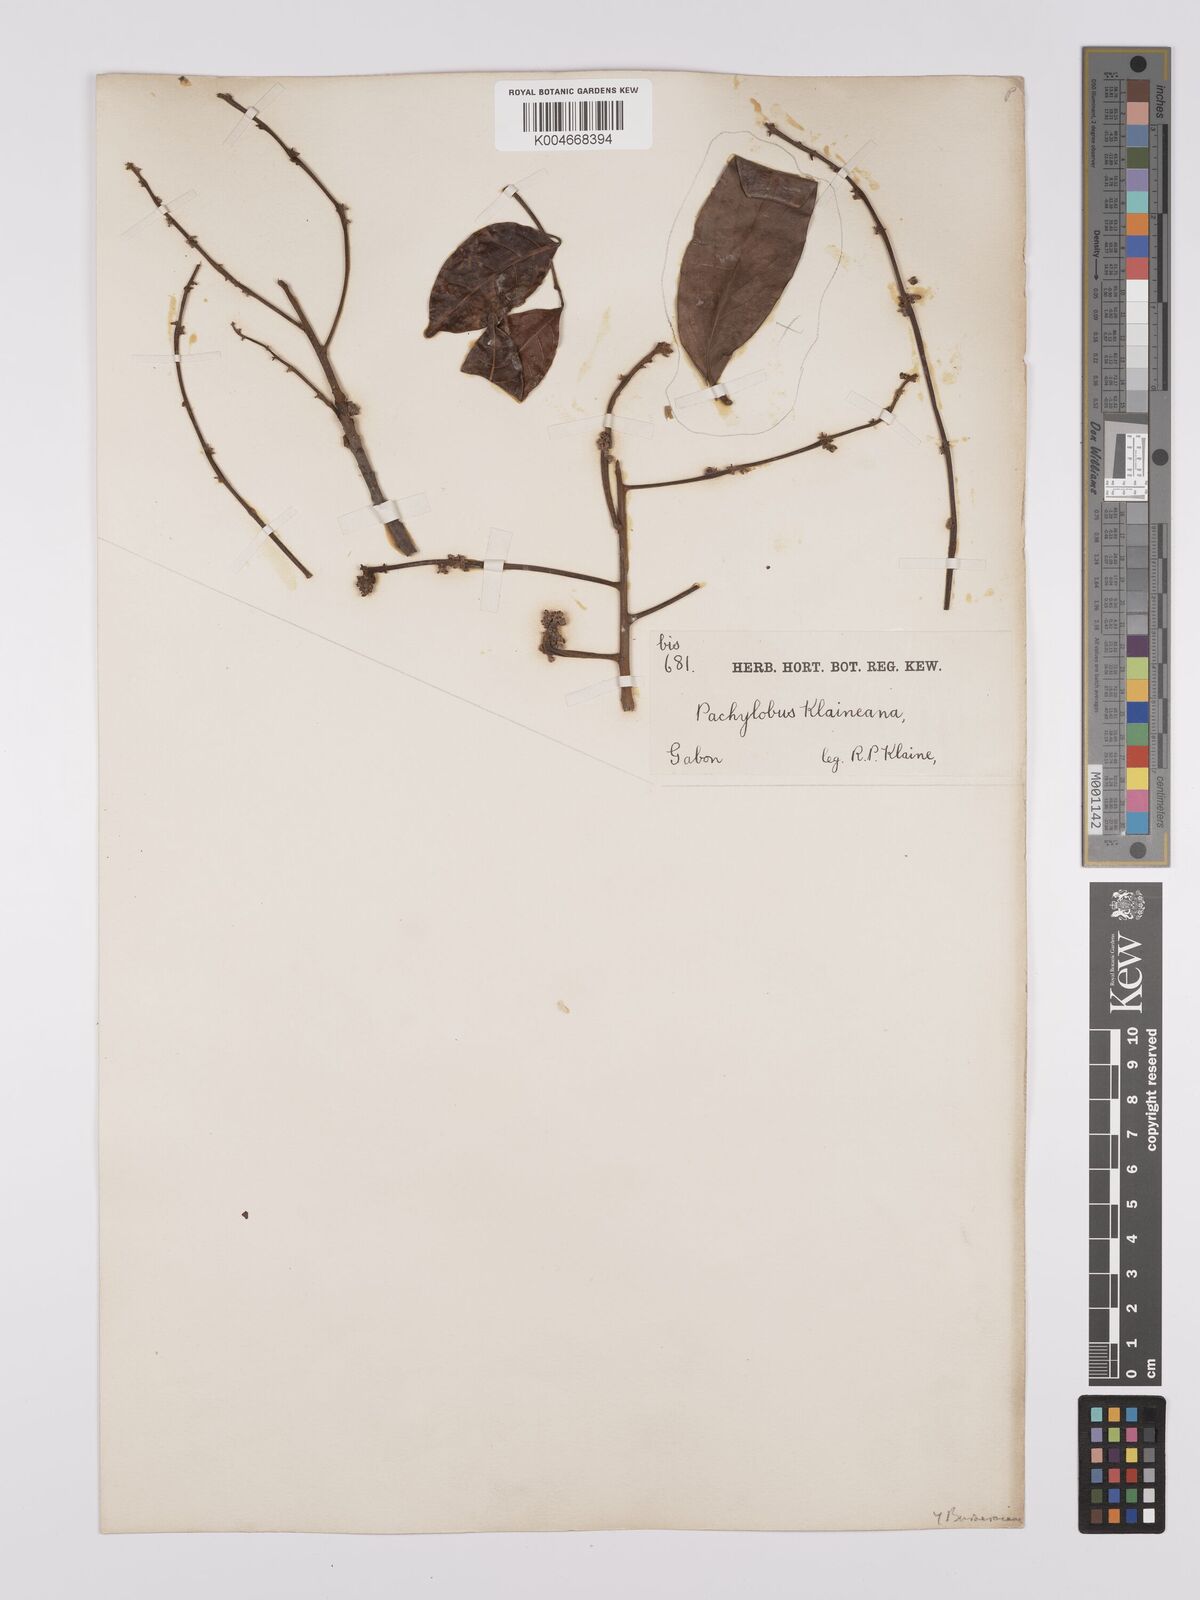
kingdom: Plantae
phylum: Tracheophyta
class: Magnoliopsida
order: Sapindales
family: Burseraceae
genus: Pachylobus
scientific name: Pachylobus klaineana
